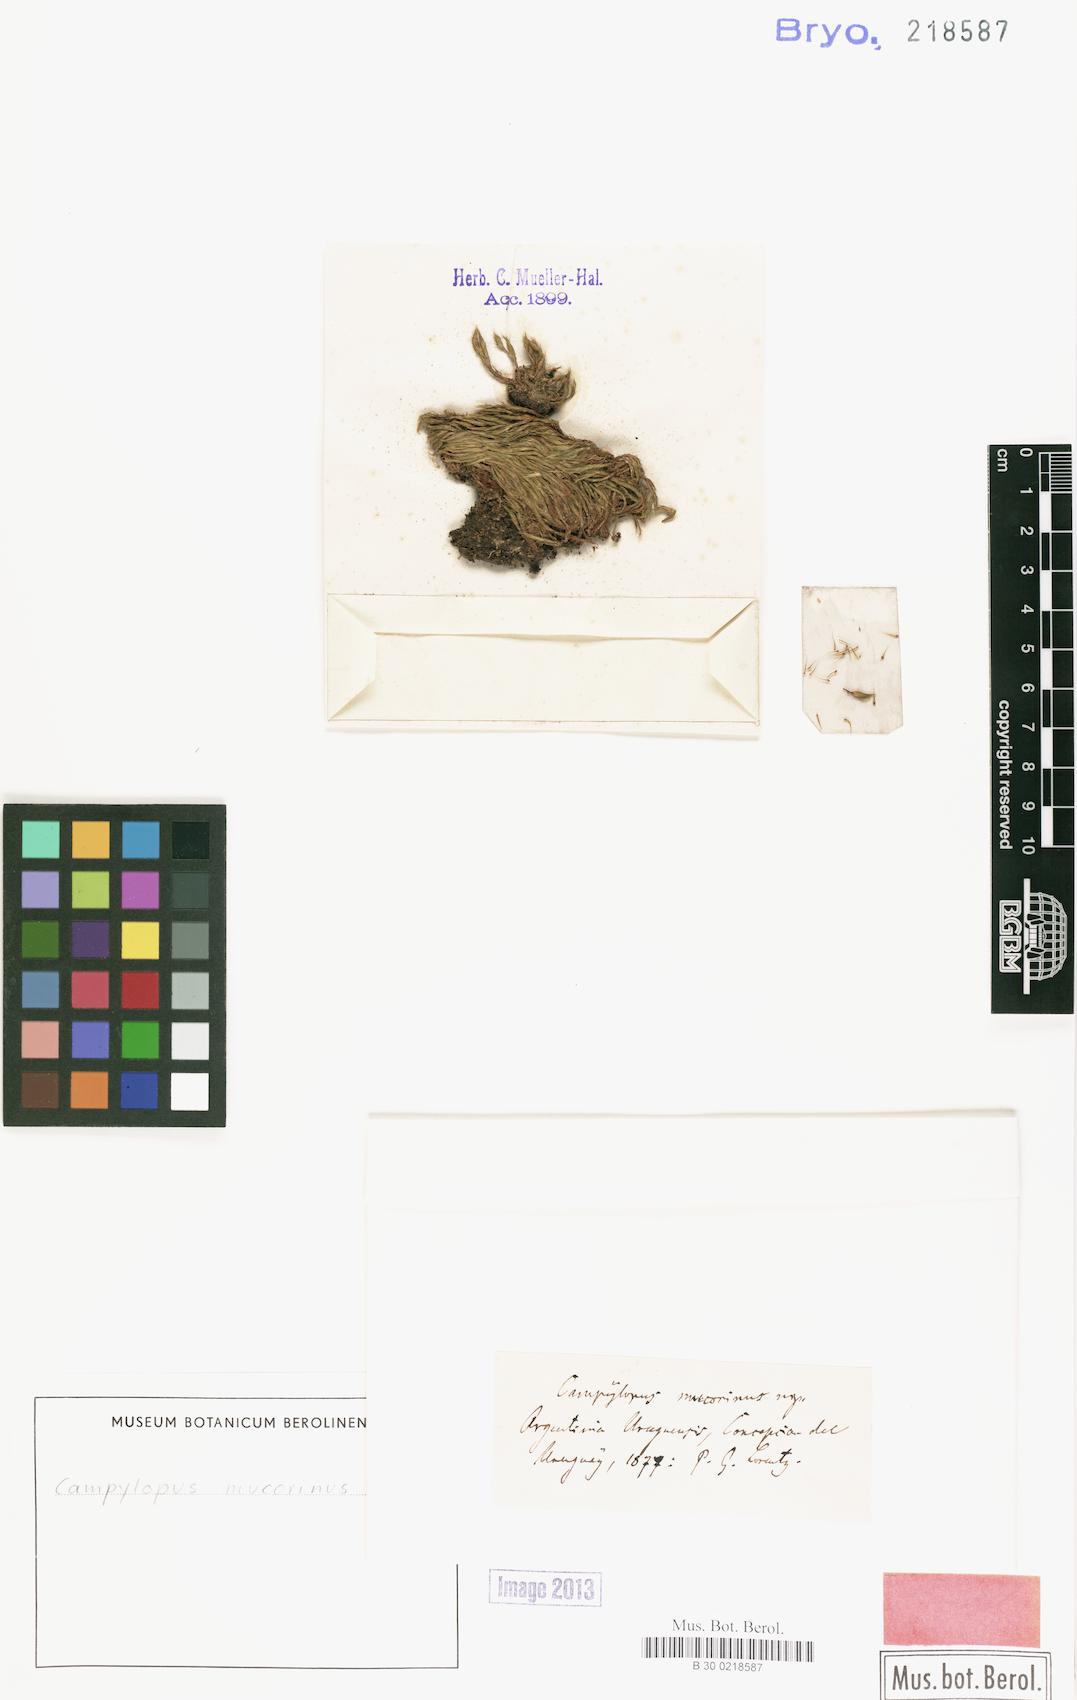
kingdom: Plantae
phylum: Bryophyta
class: Bryopsida
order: Dicranales
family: Dicranaceae
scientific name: Dicranaceae
